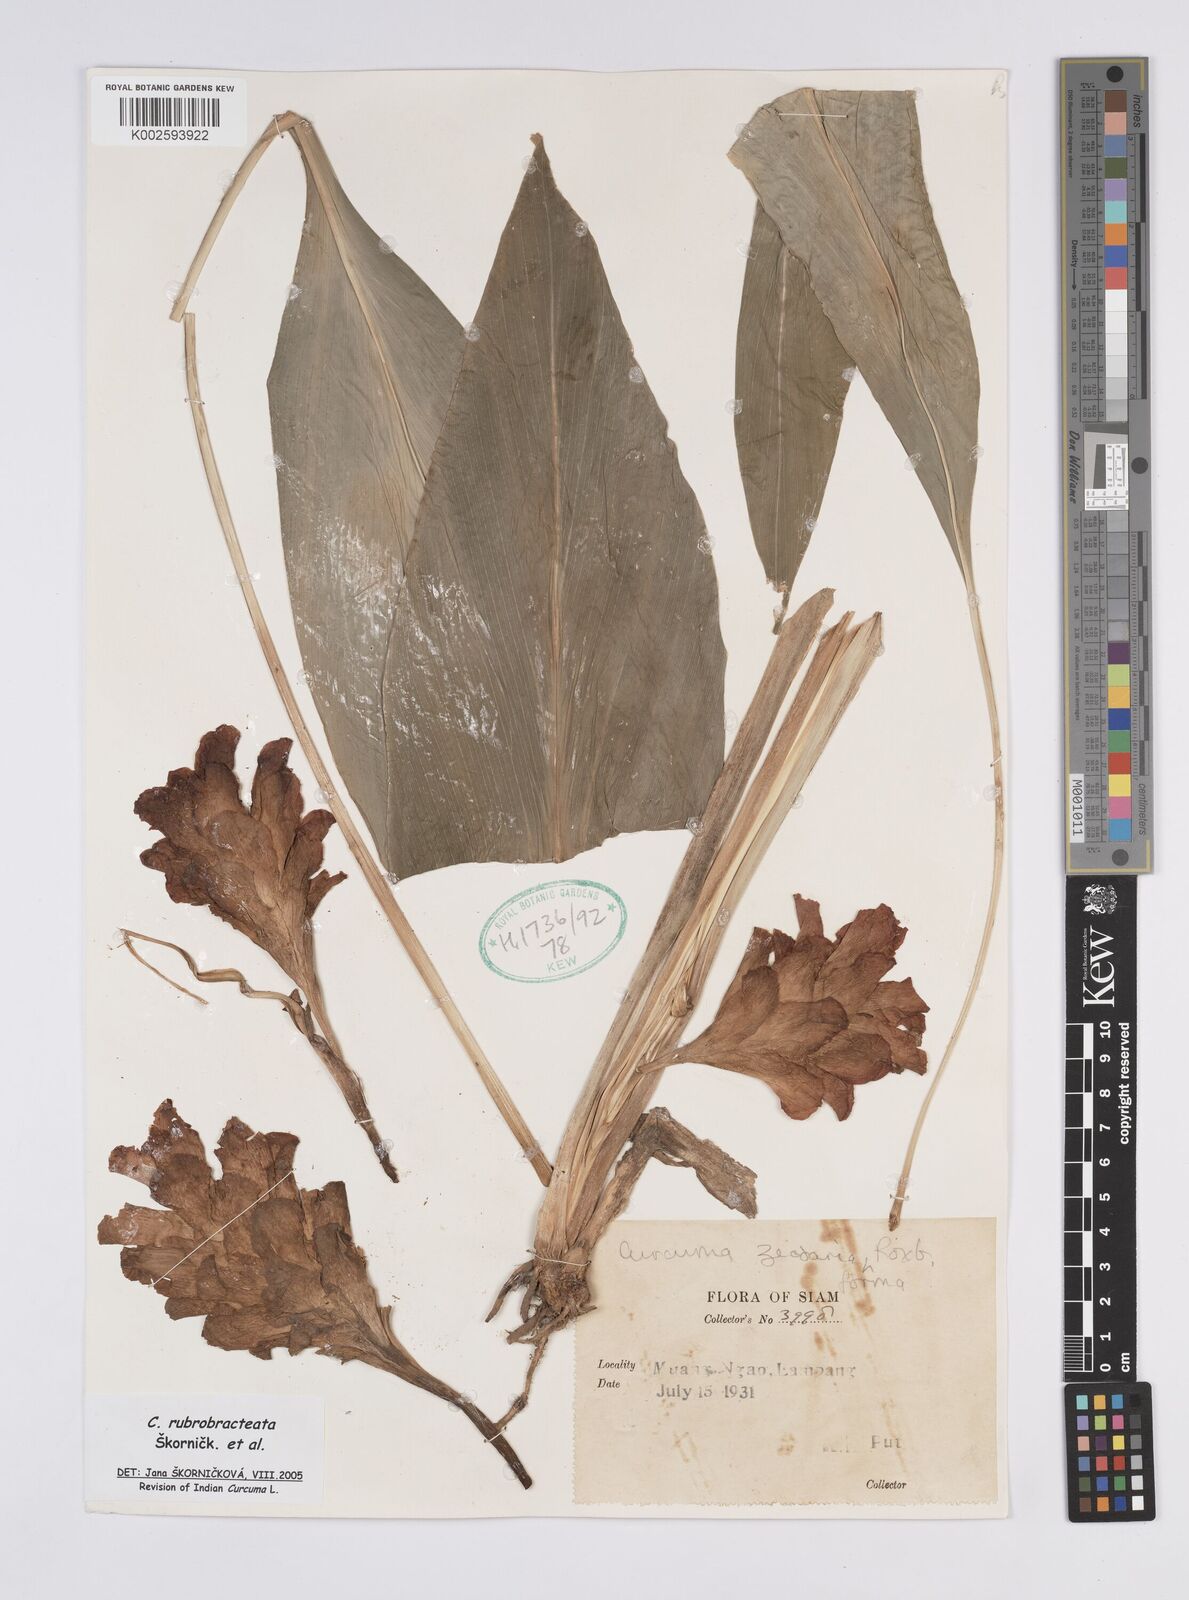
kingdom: Plantae
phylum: Tracheophyta
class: Liliopsida
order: Zingiberales
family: Zingiberaceae
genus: Curcuma
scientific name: Curcuma rubrobracteata
